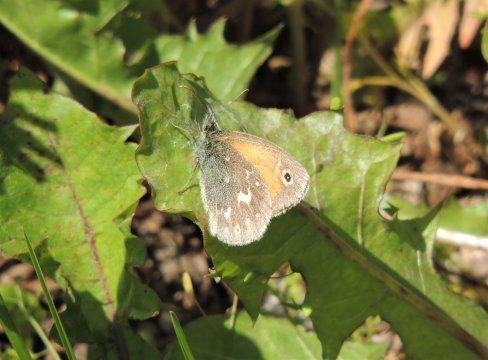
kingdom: Animalia
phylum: Arthropoda
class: Insecta
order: Lepidoptera
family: Nymphalidae
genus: Coenonympha
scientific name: Coenonympha tullia
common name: Large Heath
